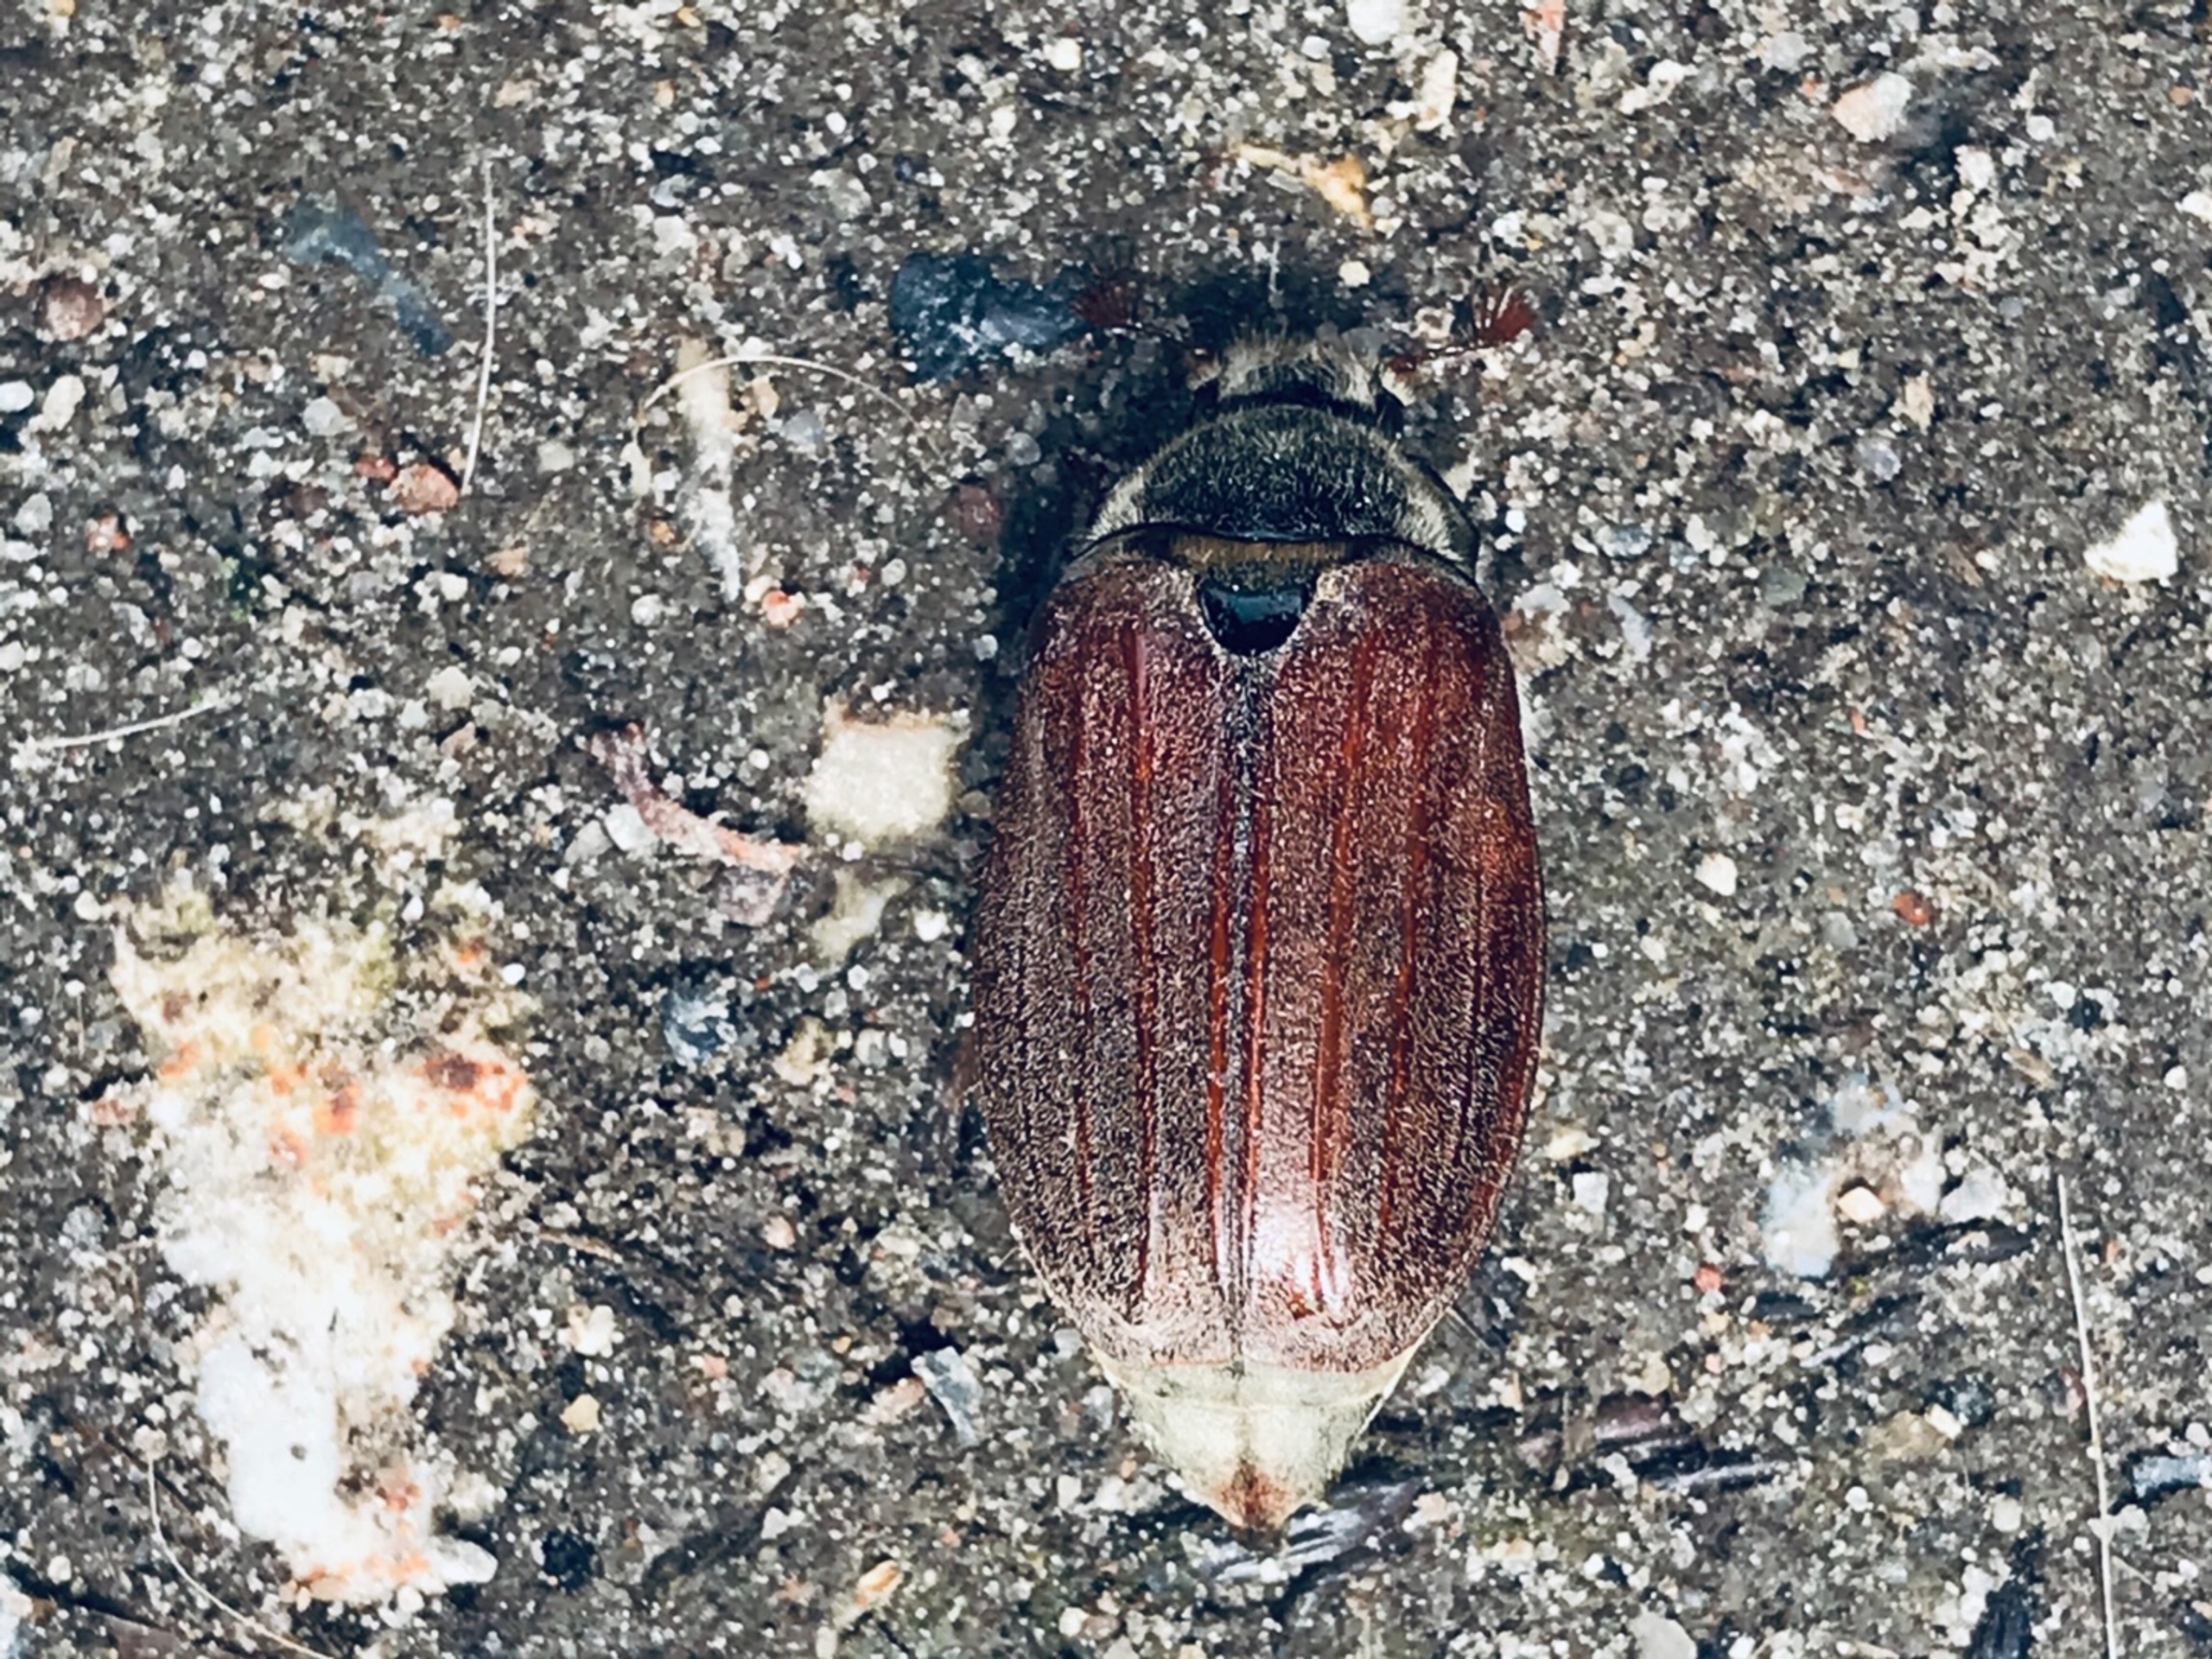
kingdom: Animalia
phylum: Arthropoda
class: Insecta
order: Coleoptera
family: Scarabaeidae
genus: Melolontha
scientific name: Melolontha melolontha
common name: Almindelig oldenborre
